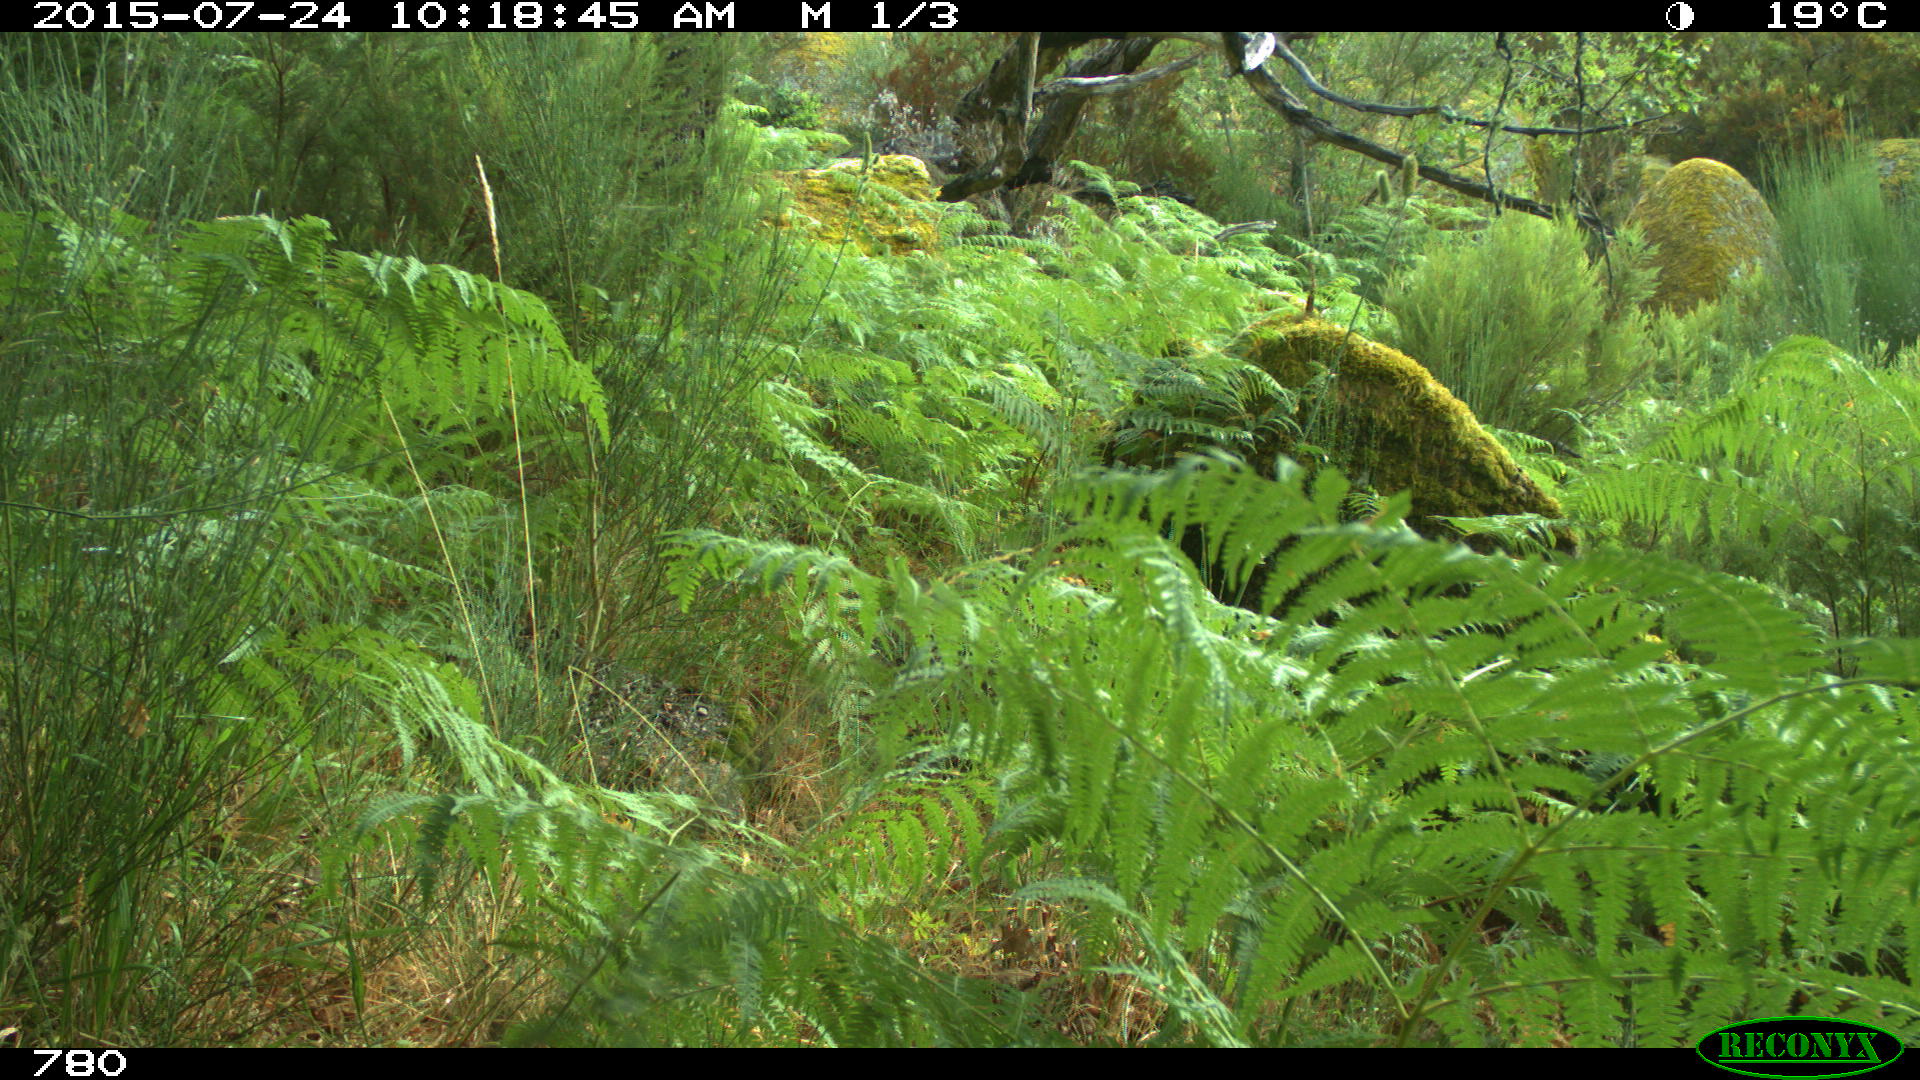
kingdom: Animalia
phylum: Chordata
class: Mammalia
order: Artiodactyla
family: Suidae
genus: Sus
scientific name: Sus scrofa
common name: Wild boar
